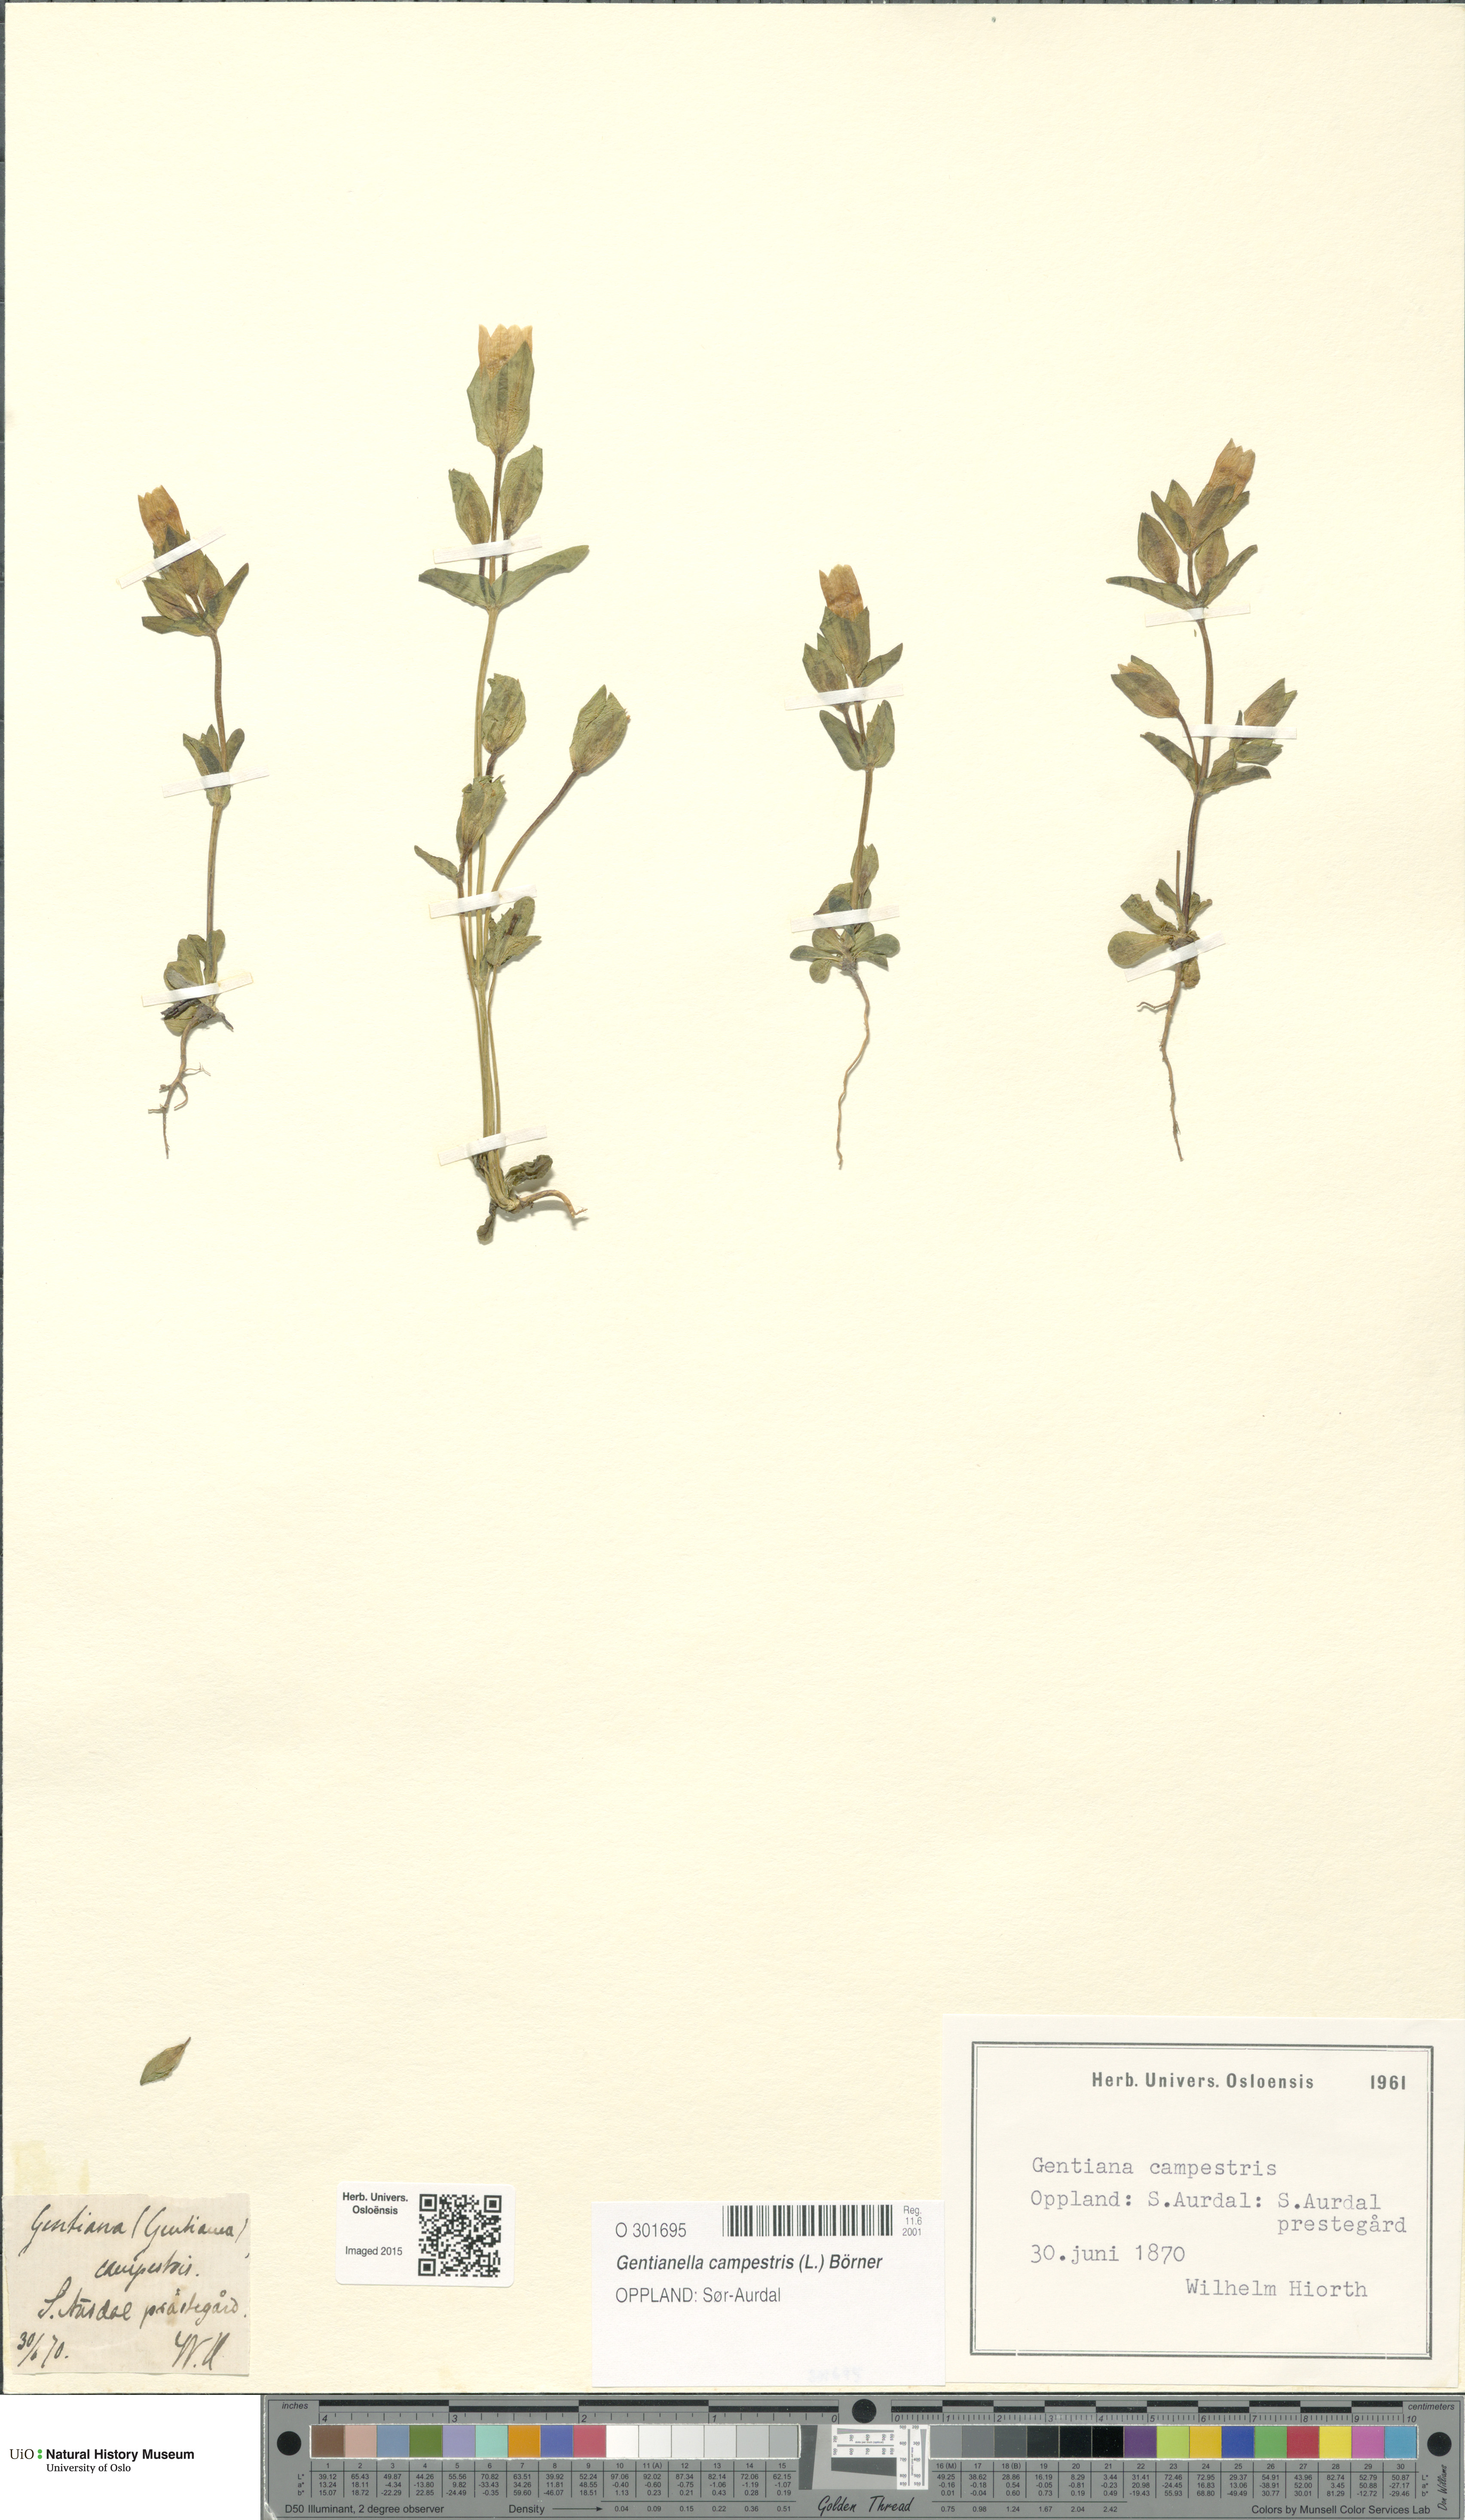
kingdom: Plantae
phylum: Tracheophyta
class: Magnoliopsida
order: Gentianales
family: Gentianaceae
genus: Gentianella
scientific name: Gentianella campestris
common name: Field gentian
